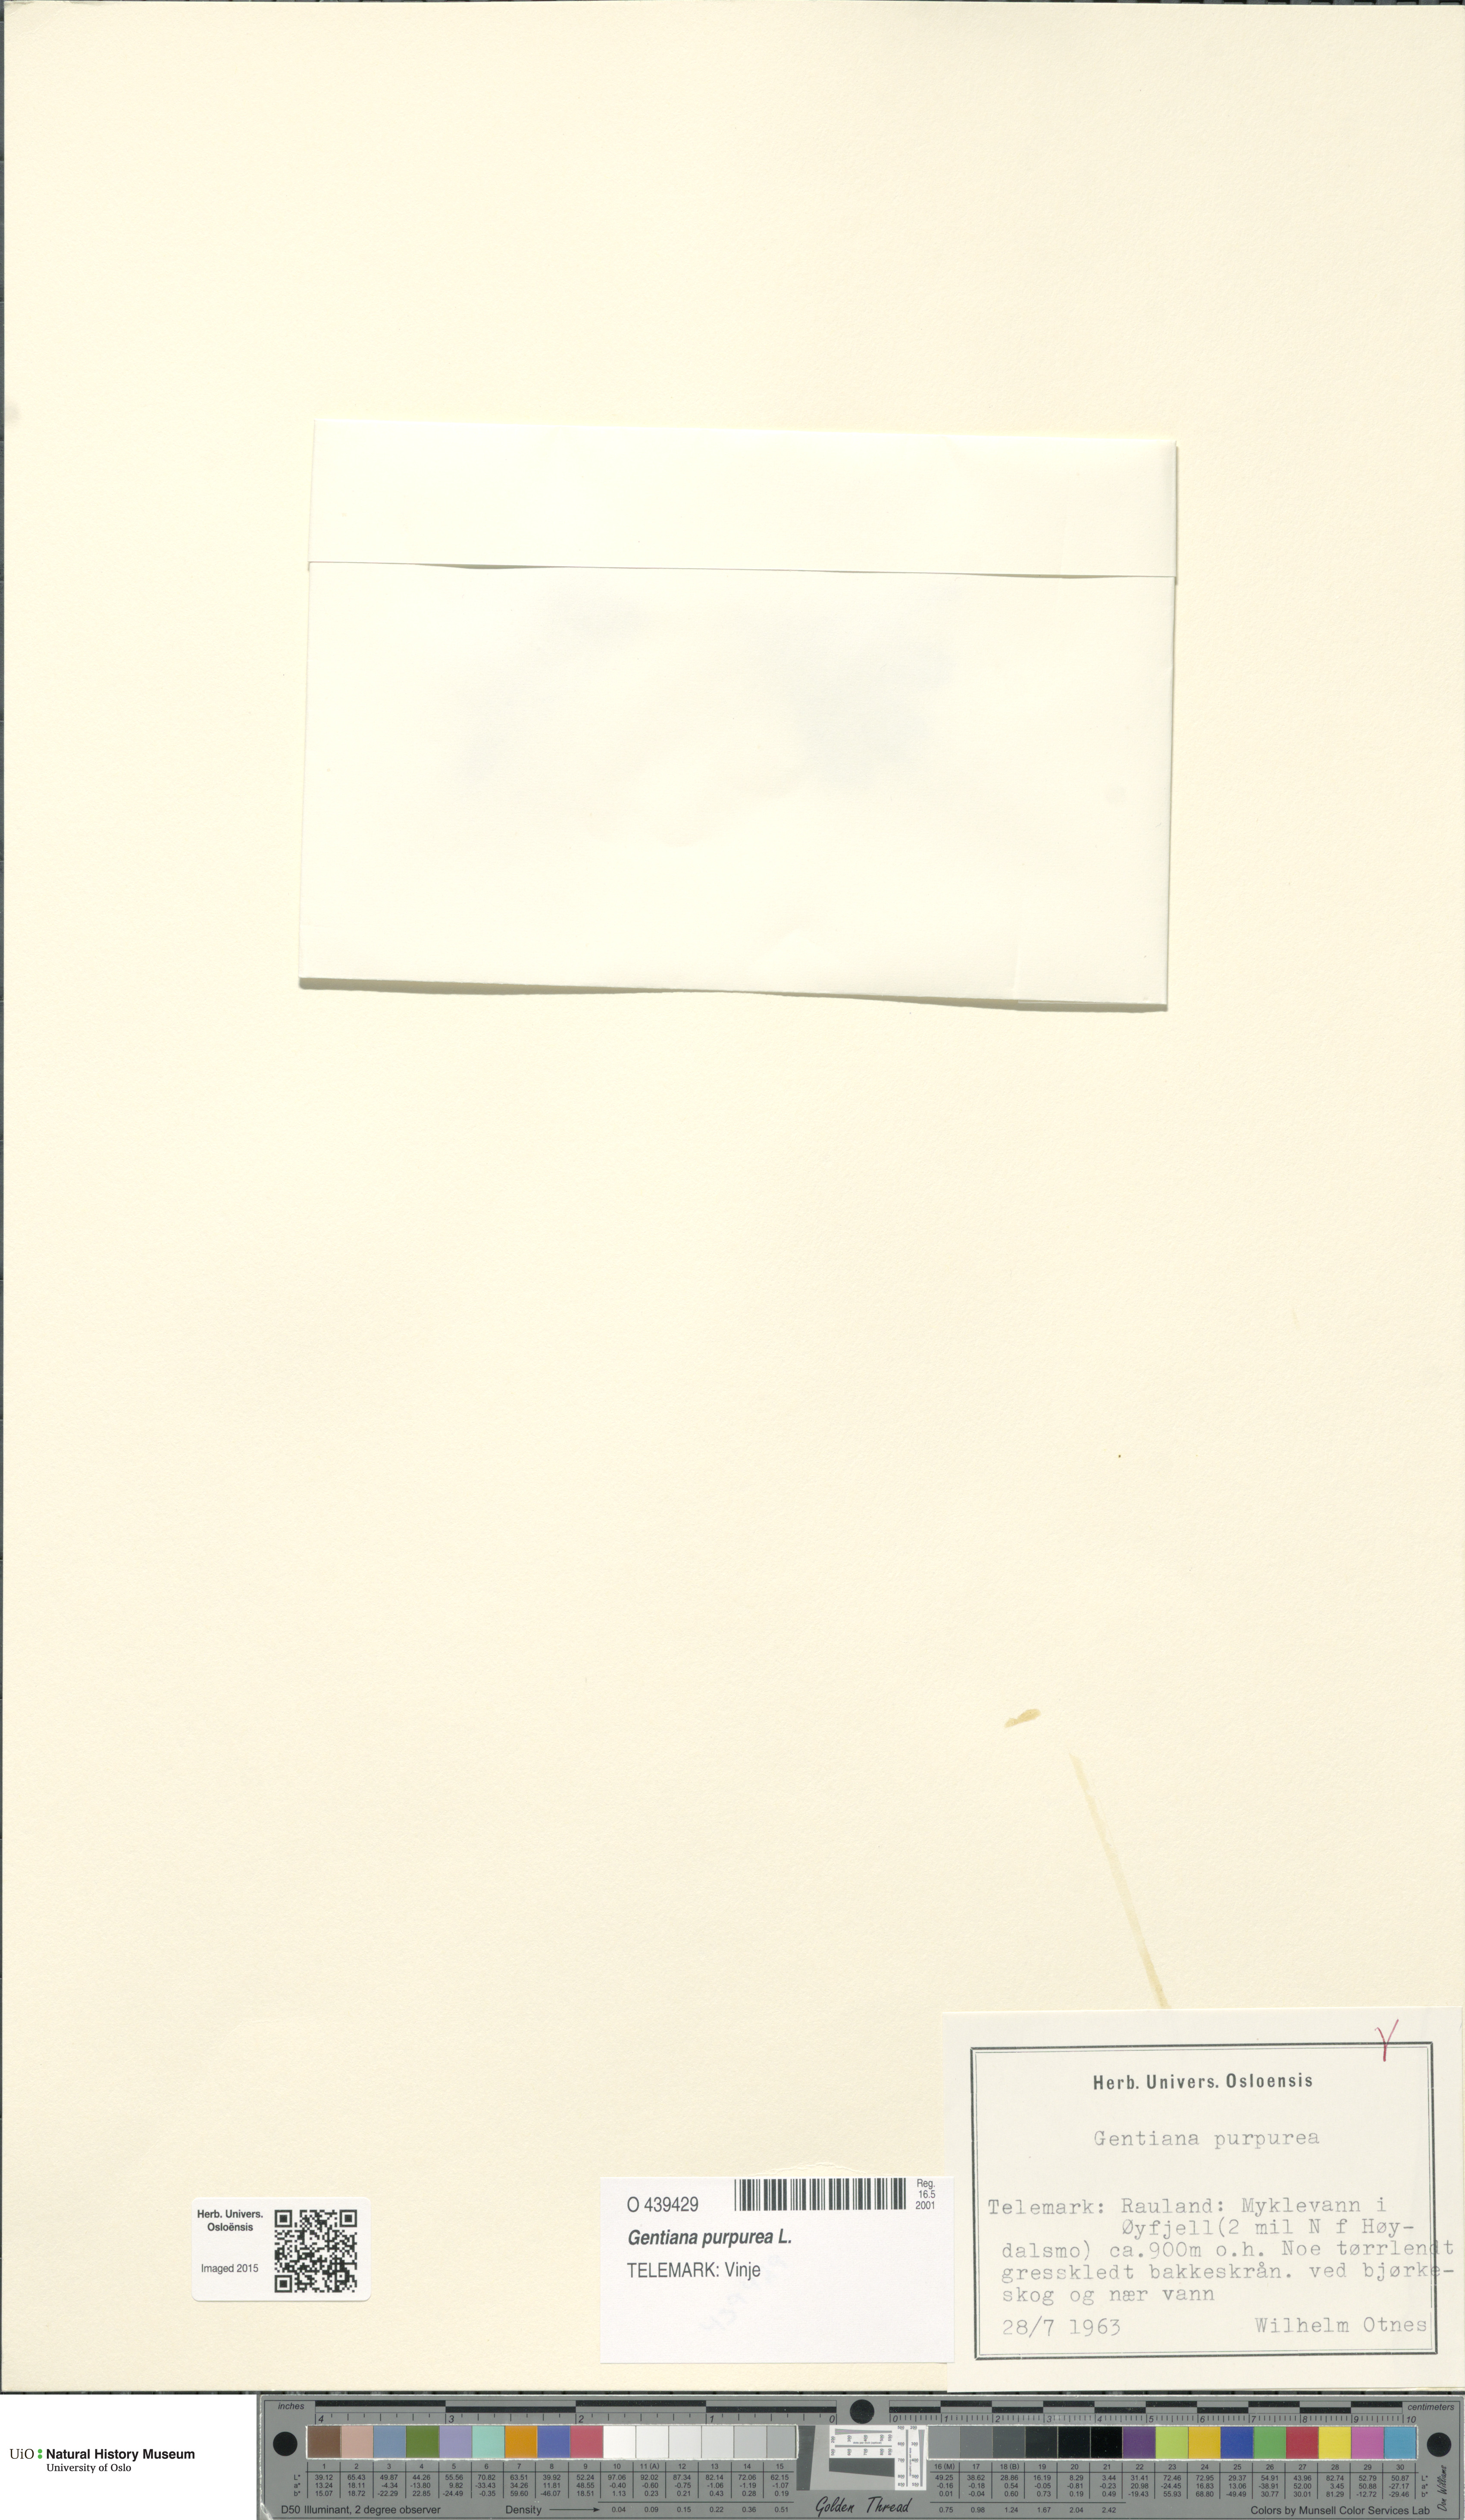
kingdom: Plantae
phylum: Tracheophyta
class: Magnoliopsida
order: Gentianales
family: Gentianaceae
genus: Gentiana
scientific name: Gentiana purpurea
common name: Purple gentian
